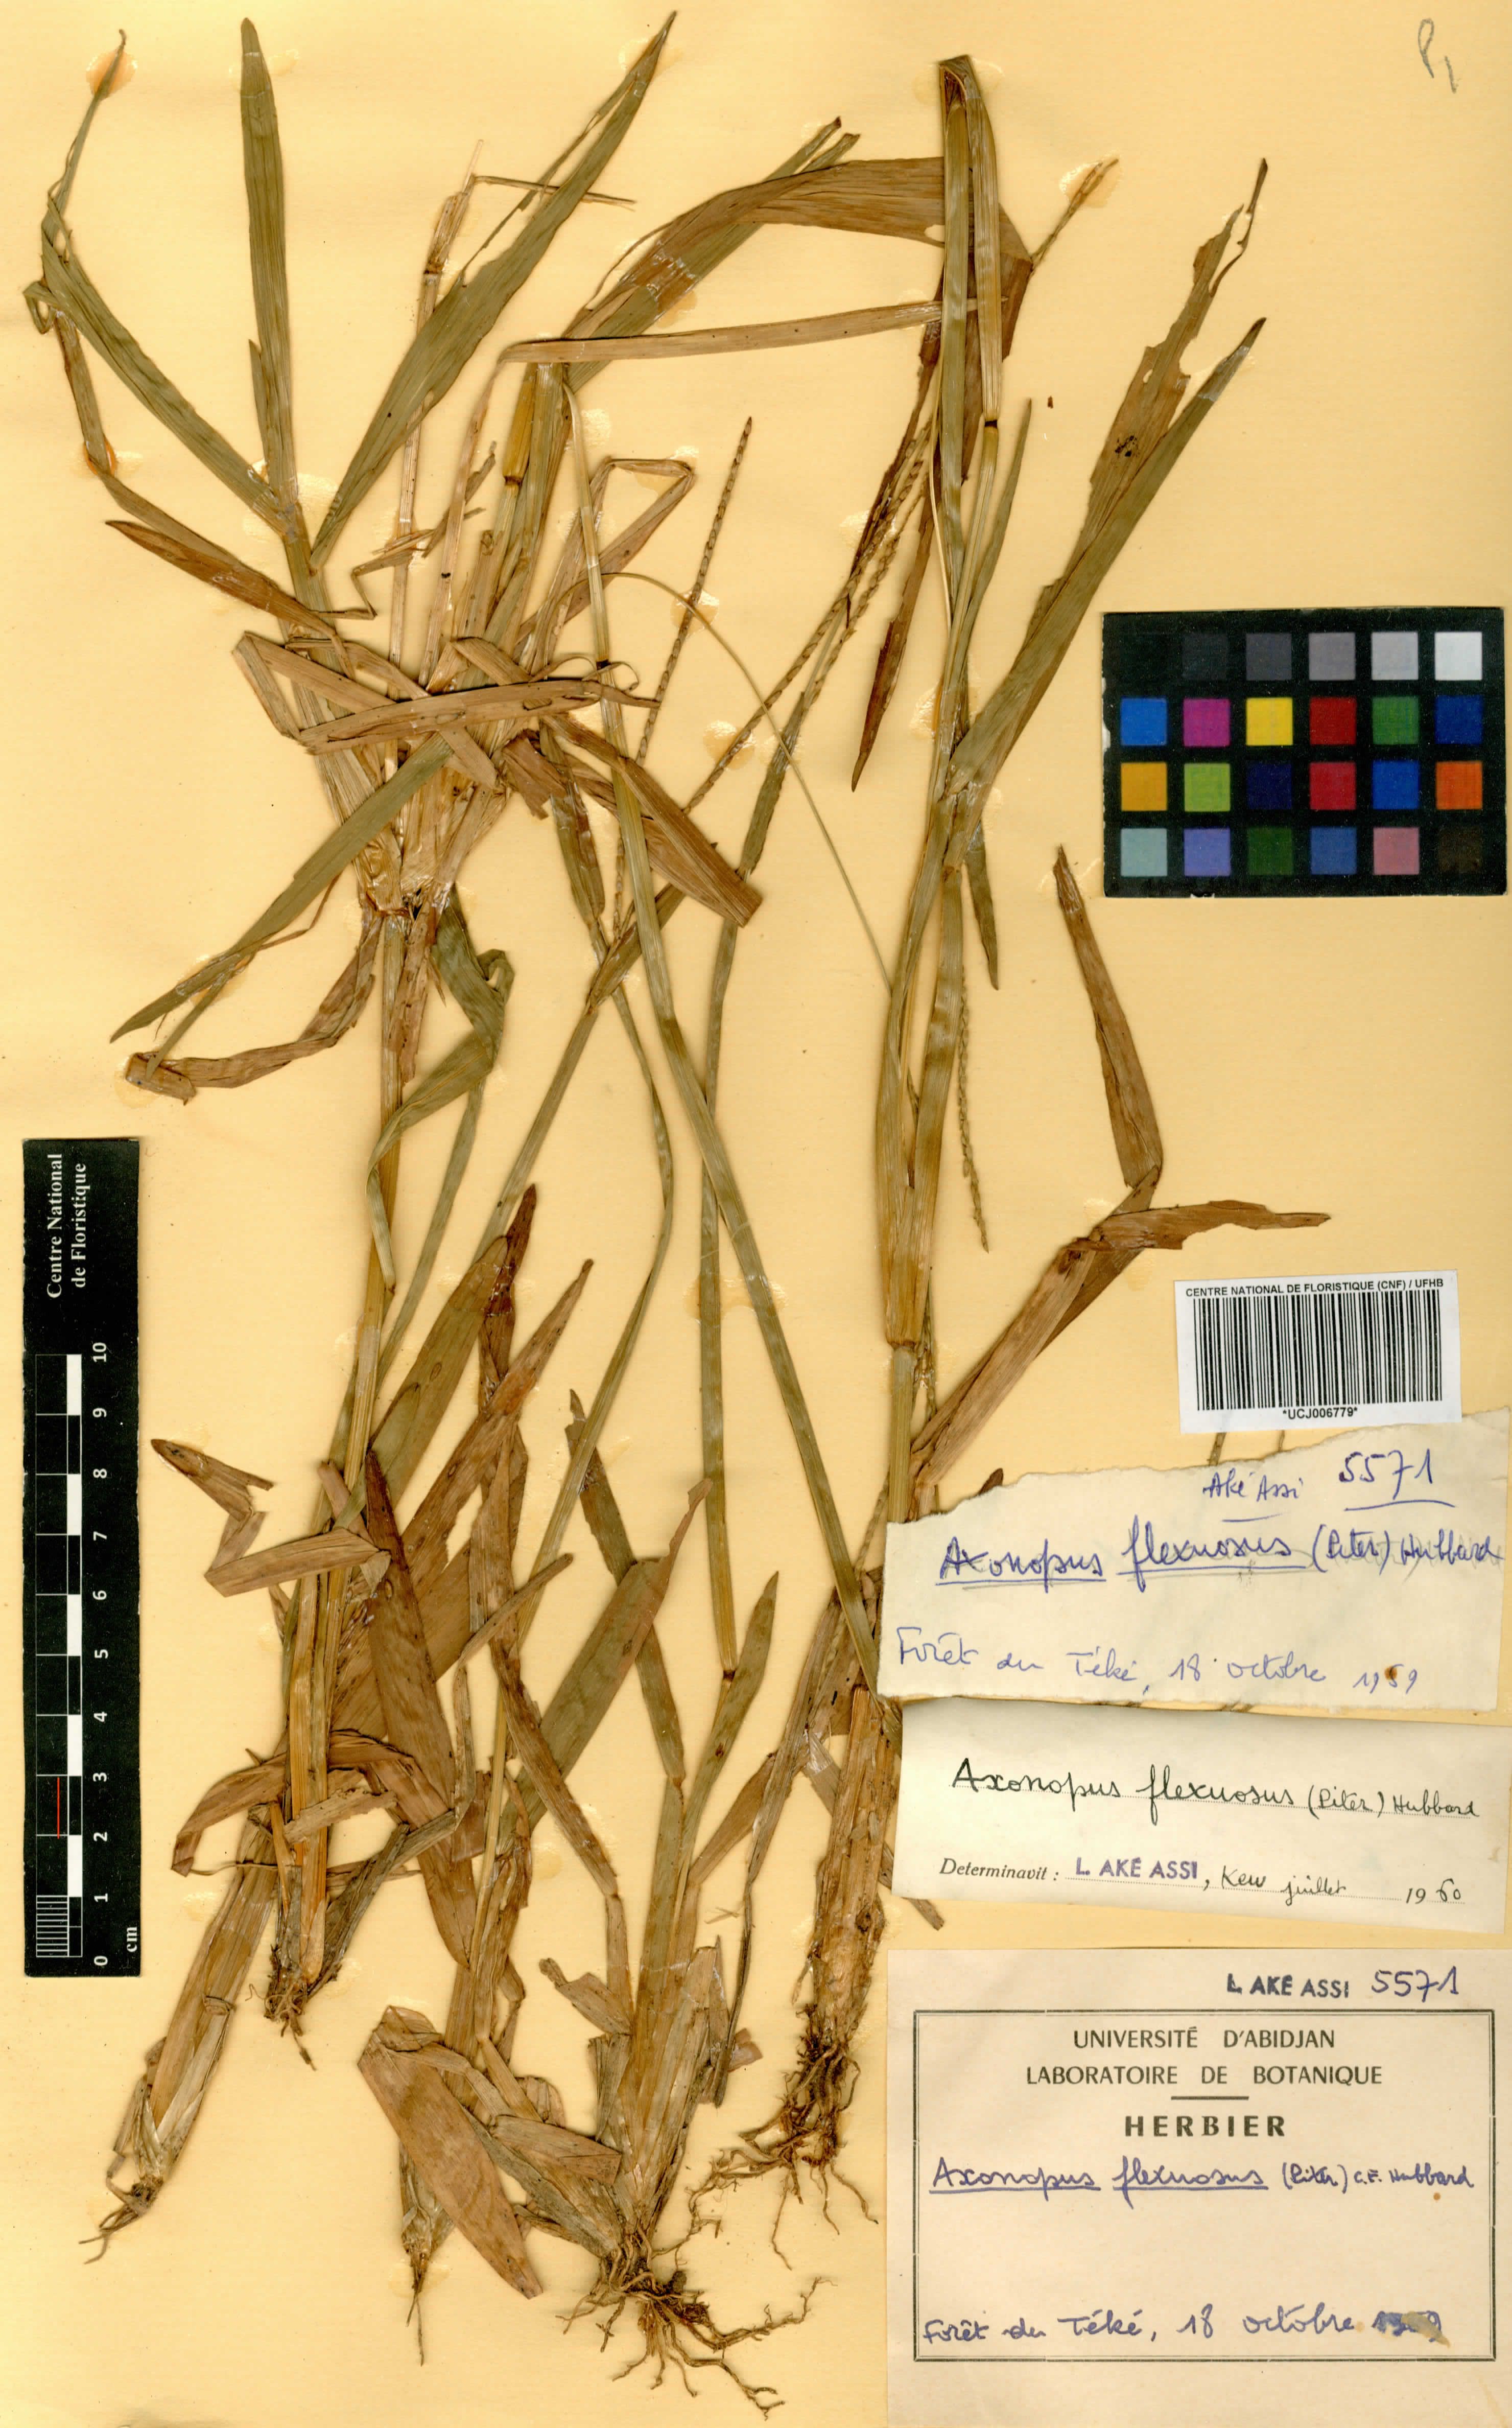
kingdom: Plantae
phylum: Tracheophyta
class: Liliopsida
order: Poales
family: Poaceae
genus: Axonopus
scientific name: Axonopus flexuosus
